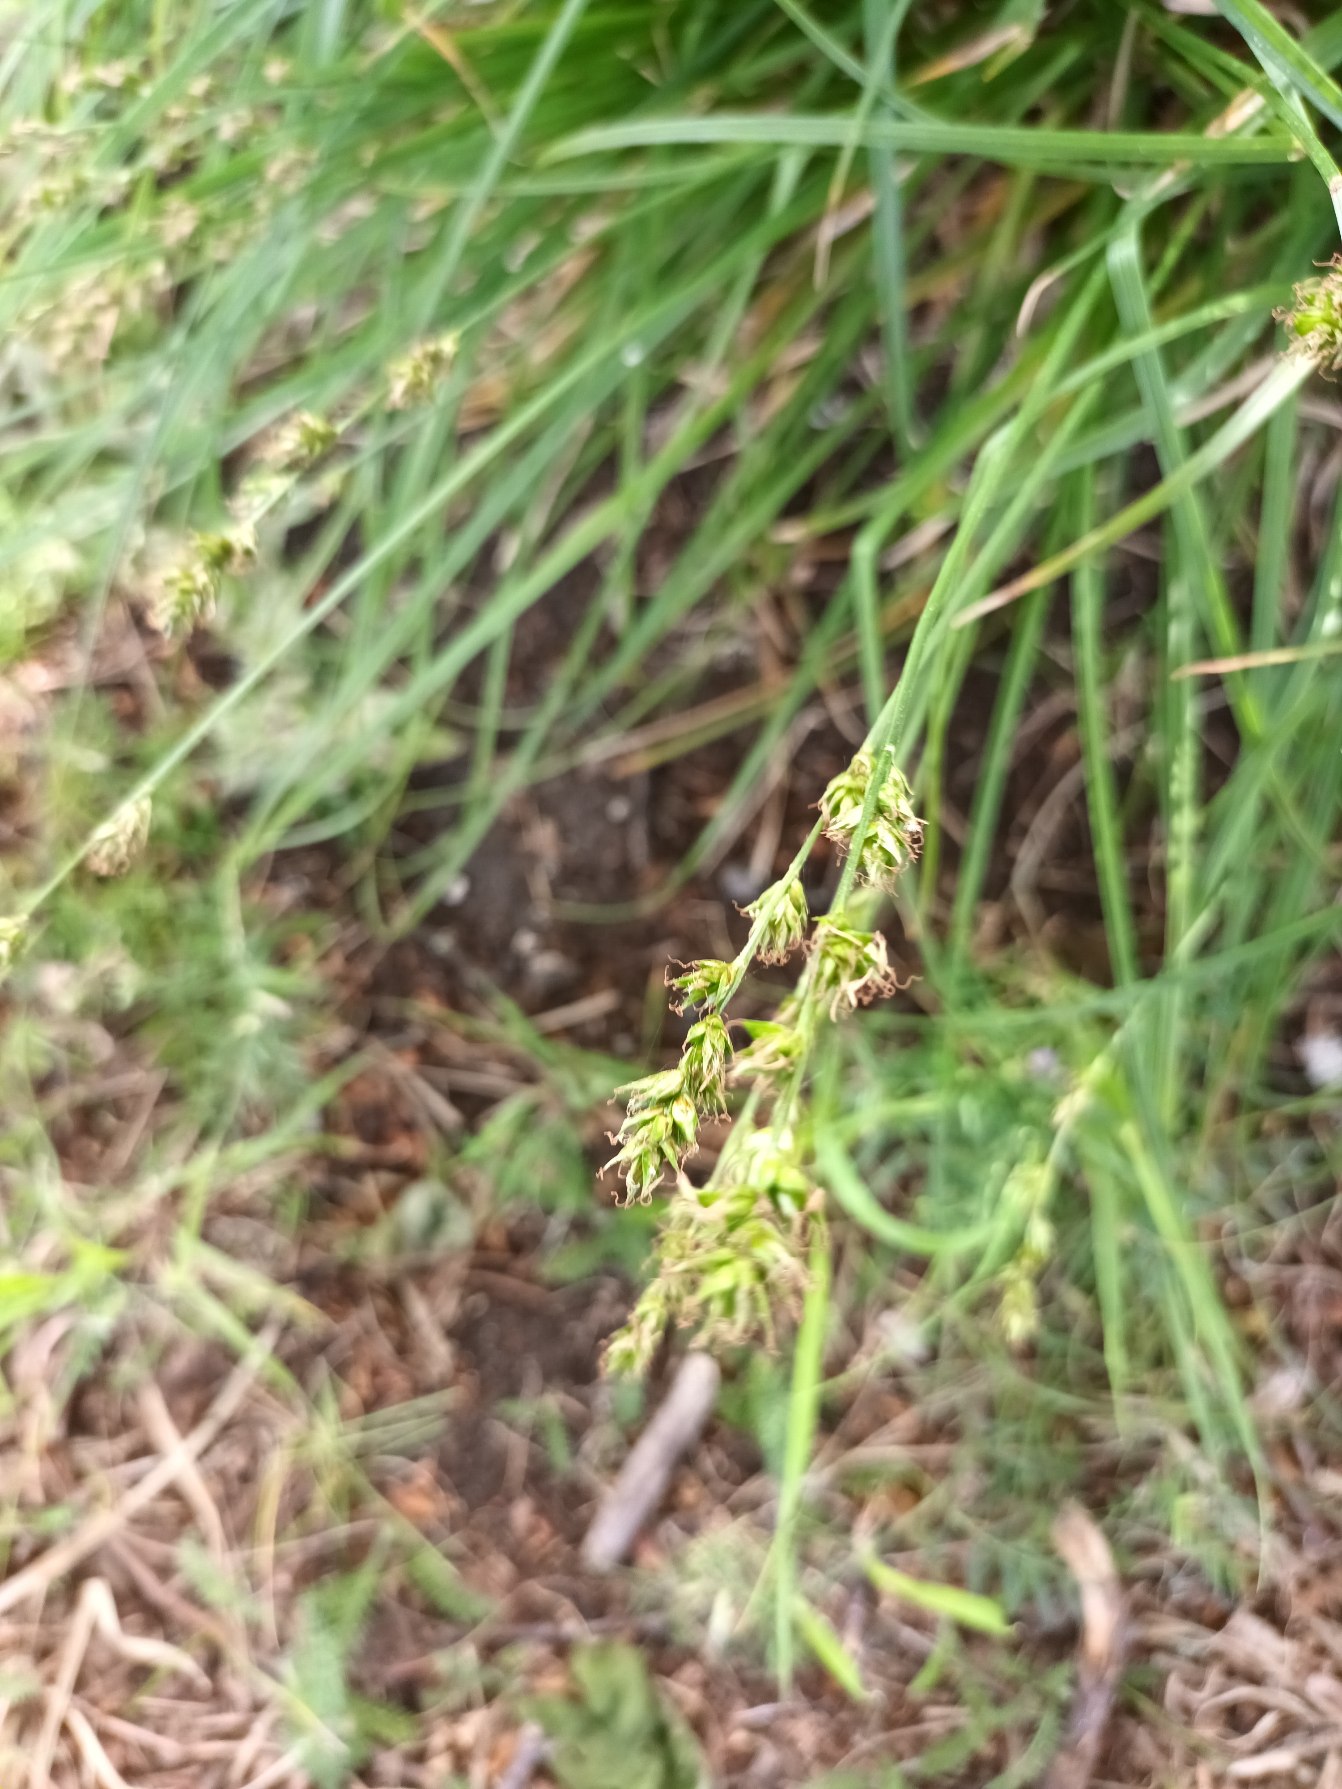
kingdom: Plantae
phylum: Tracheophyta
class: Liliopsida
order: Poales
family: Cyperaceae
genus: Carex
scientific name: Carex divulsa
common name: Mellembrudt star
